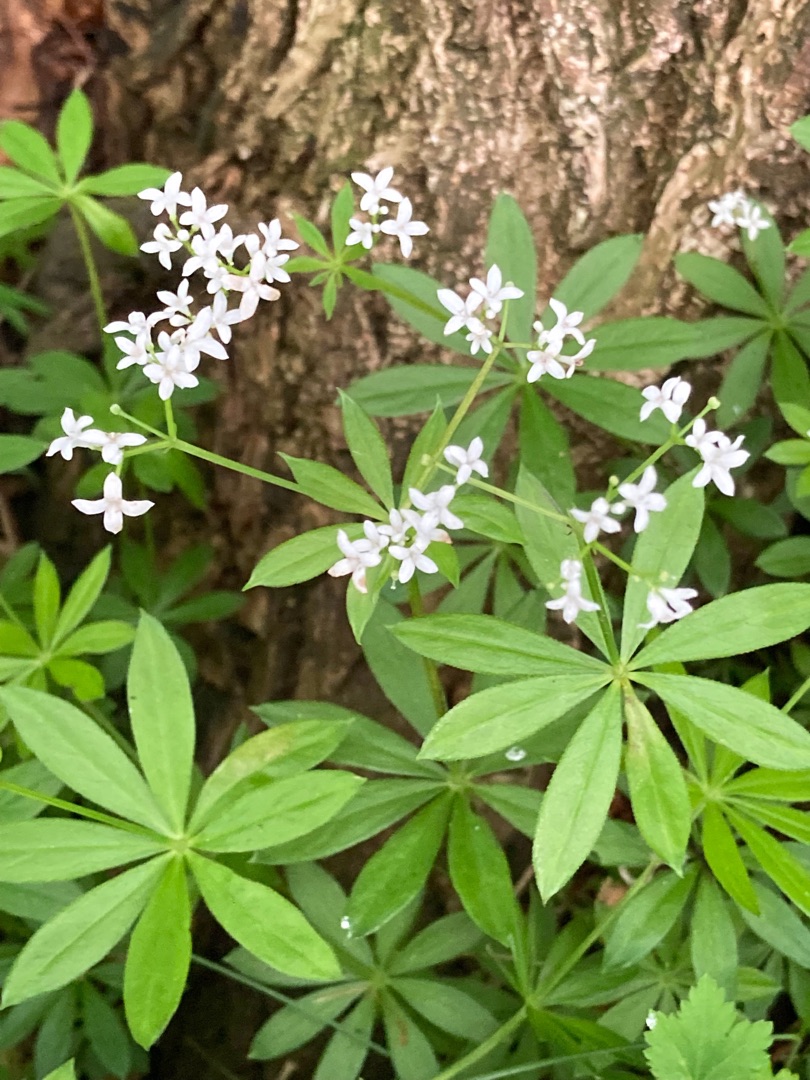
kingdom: Plantae
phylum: Tracheophyta
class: Magnoliopsida
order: Gentianales
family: Rubiaceae
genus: Galium
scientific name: Galium odoratum
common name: Skovmærke
